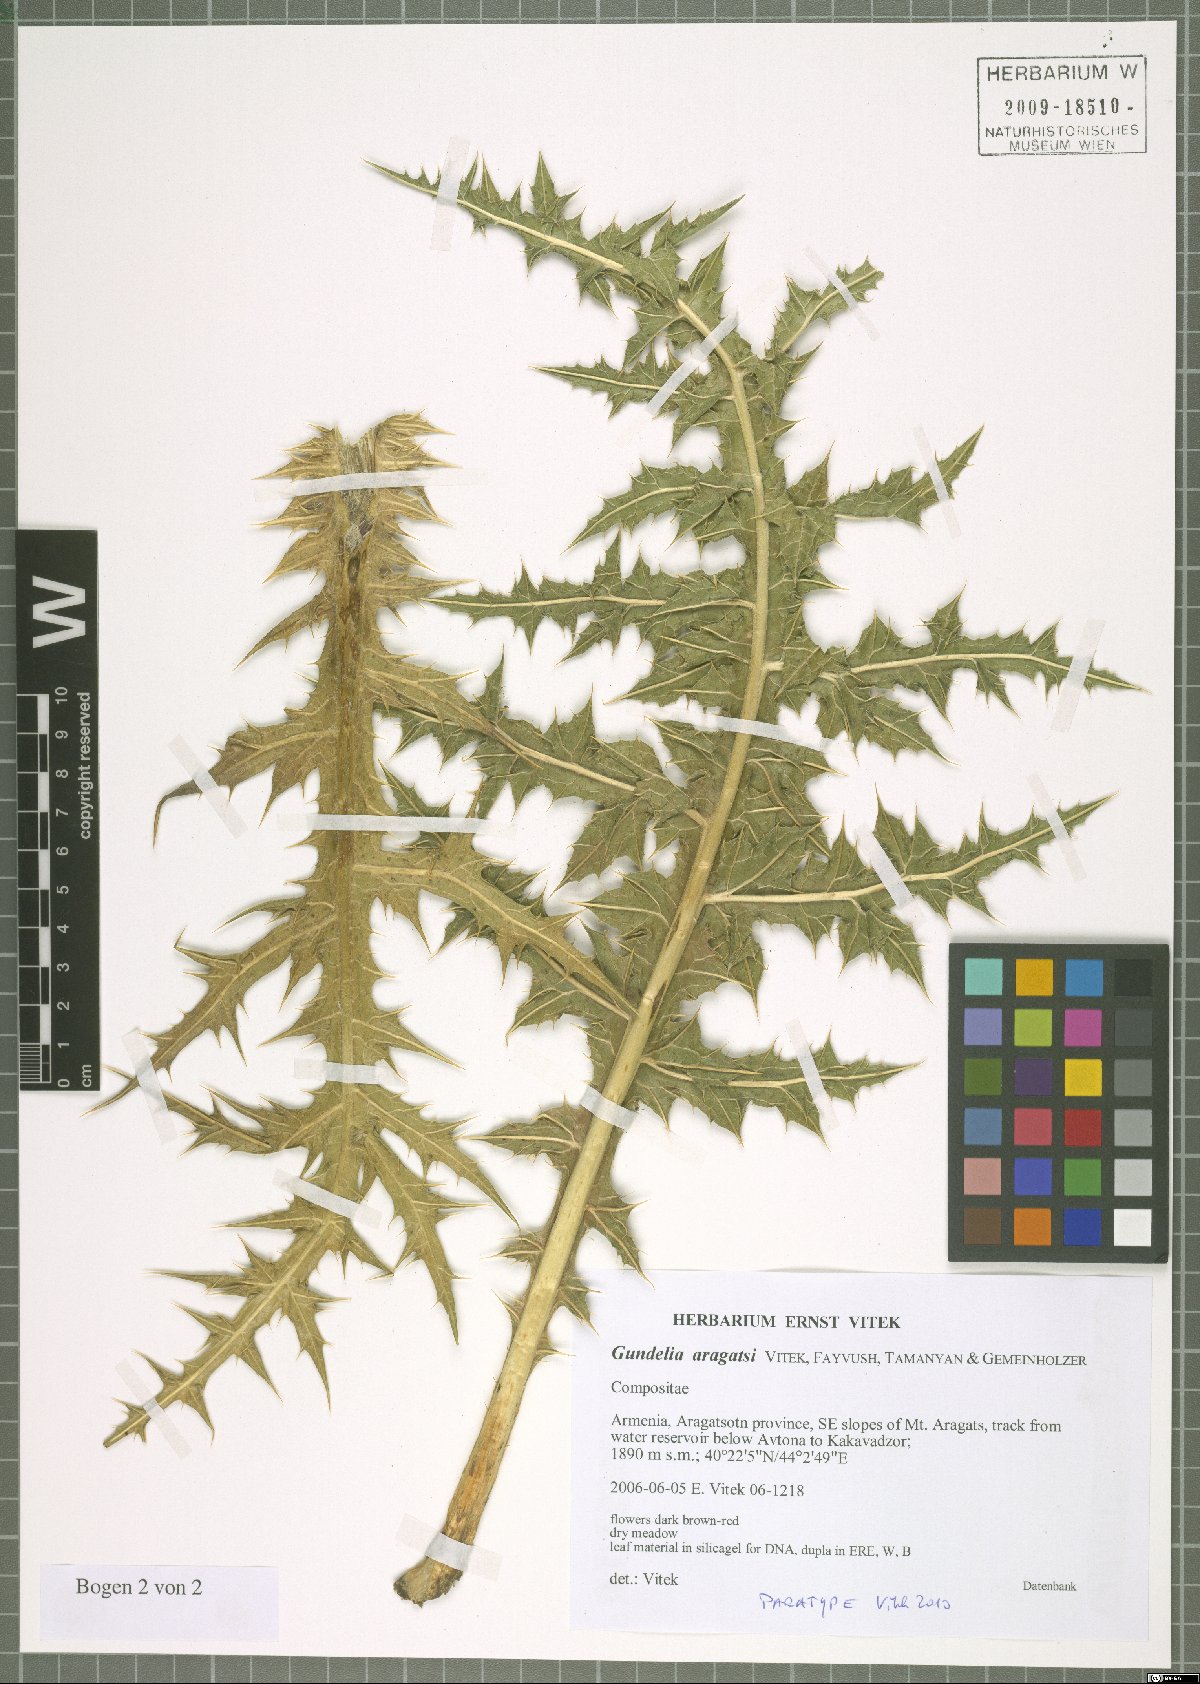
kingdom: Plantae
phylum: Tracheophyta
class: Magnoliopsida
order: Asterales
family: Asteraceae
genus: Gundelia
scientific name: Gundelia aragatsi
